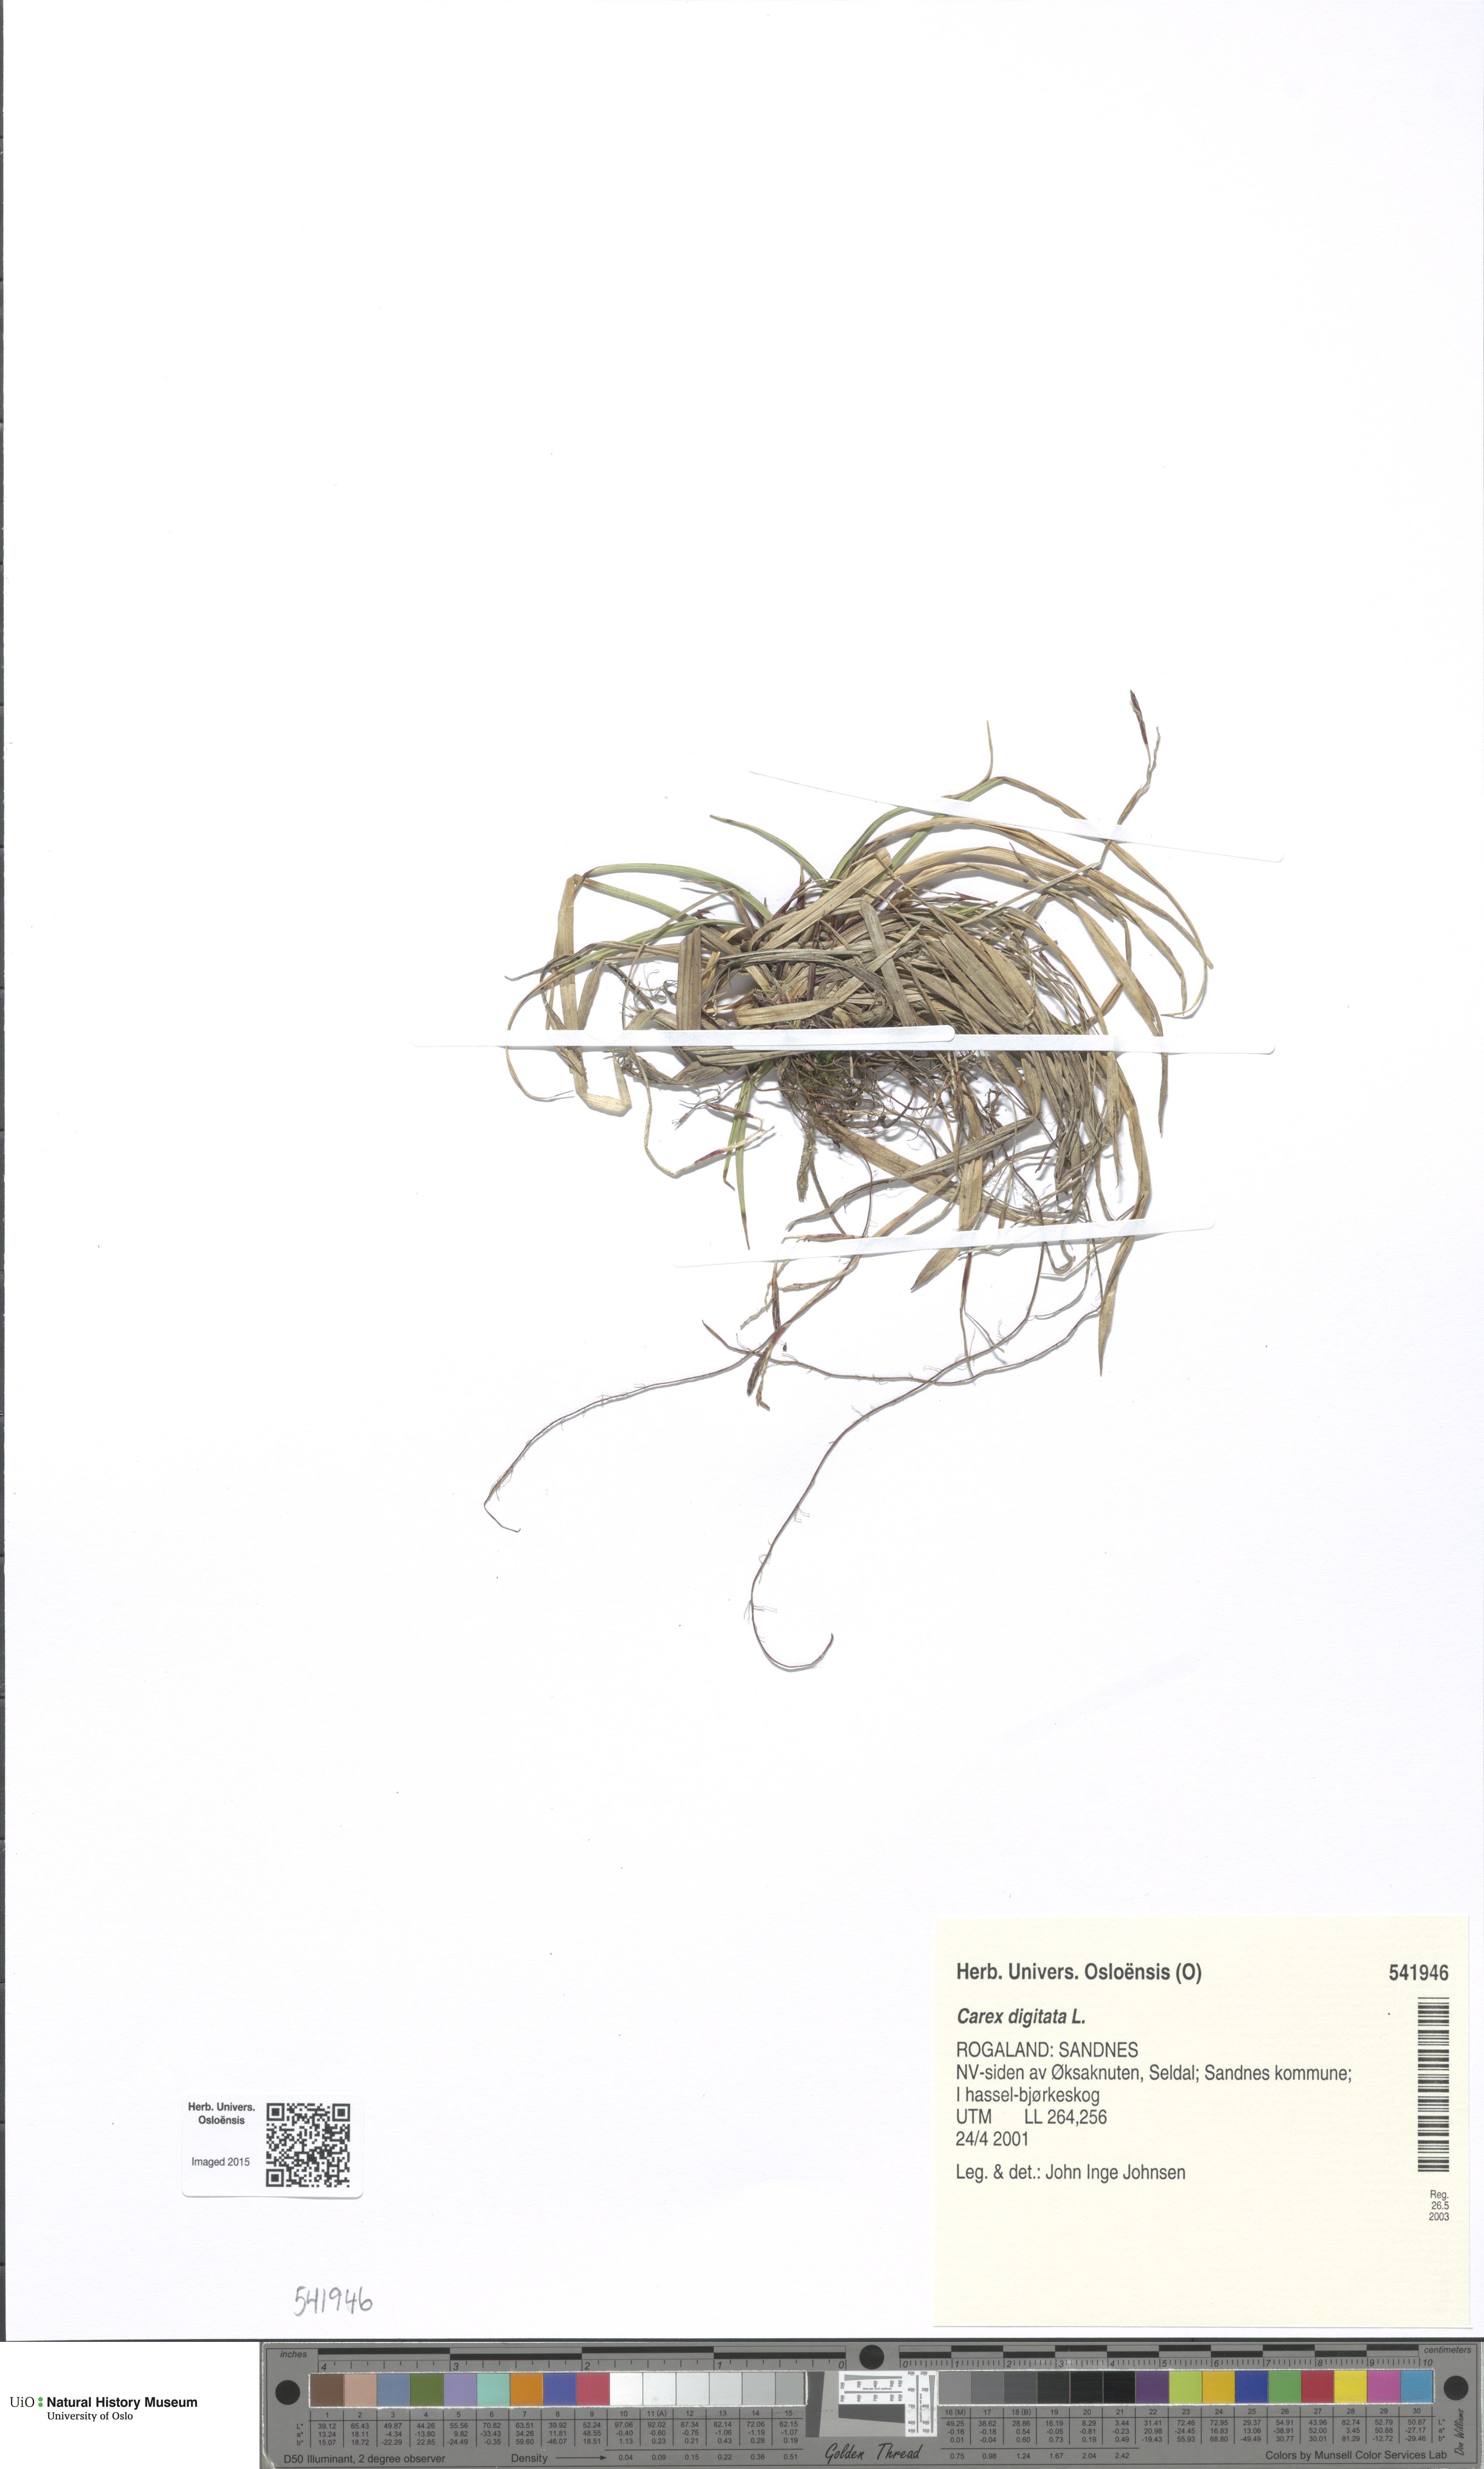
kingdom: Plantae
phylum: Tracheophyta
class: Liliopsida
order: Poales
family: Cyperaceae
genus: Carex
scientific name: Carex digitata
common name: Fingered sedge
